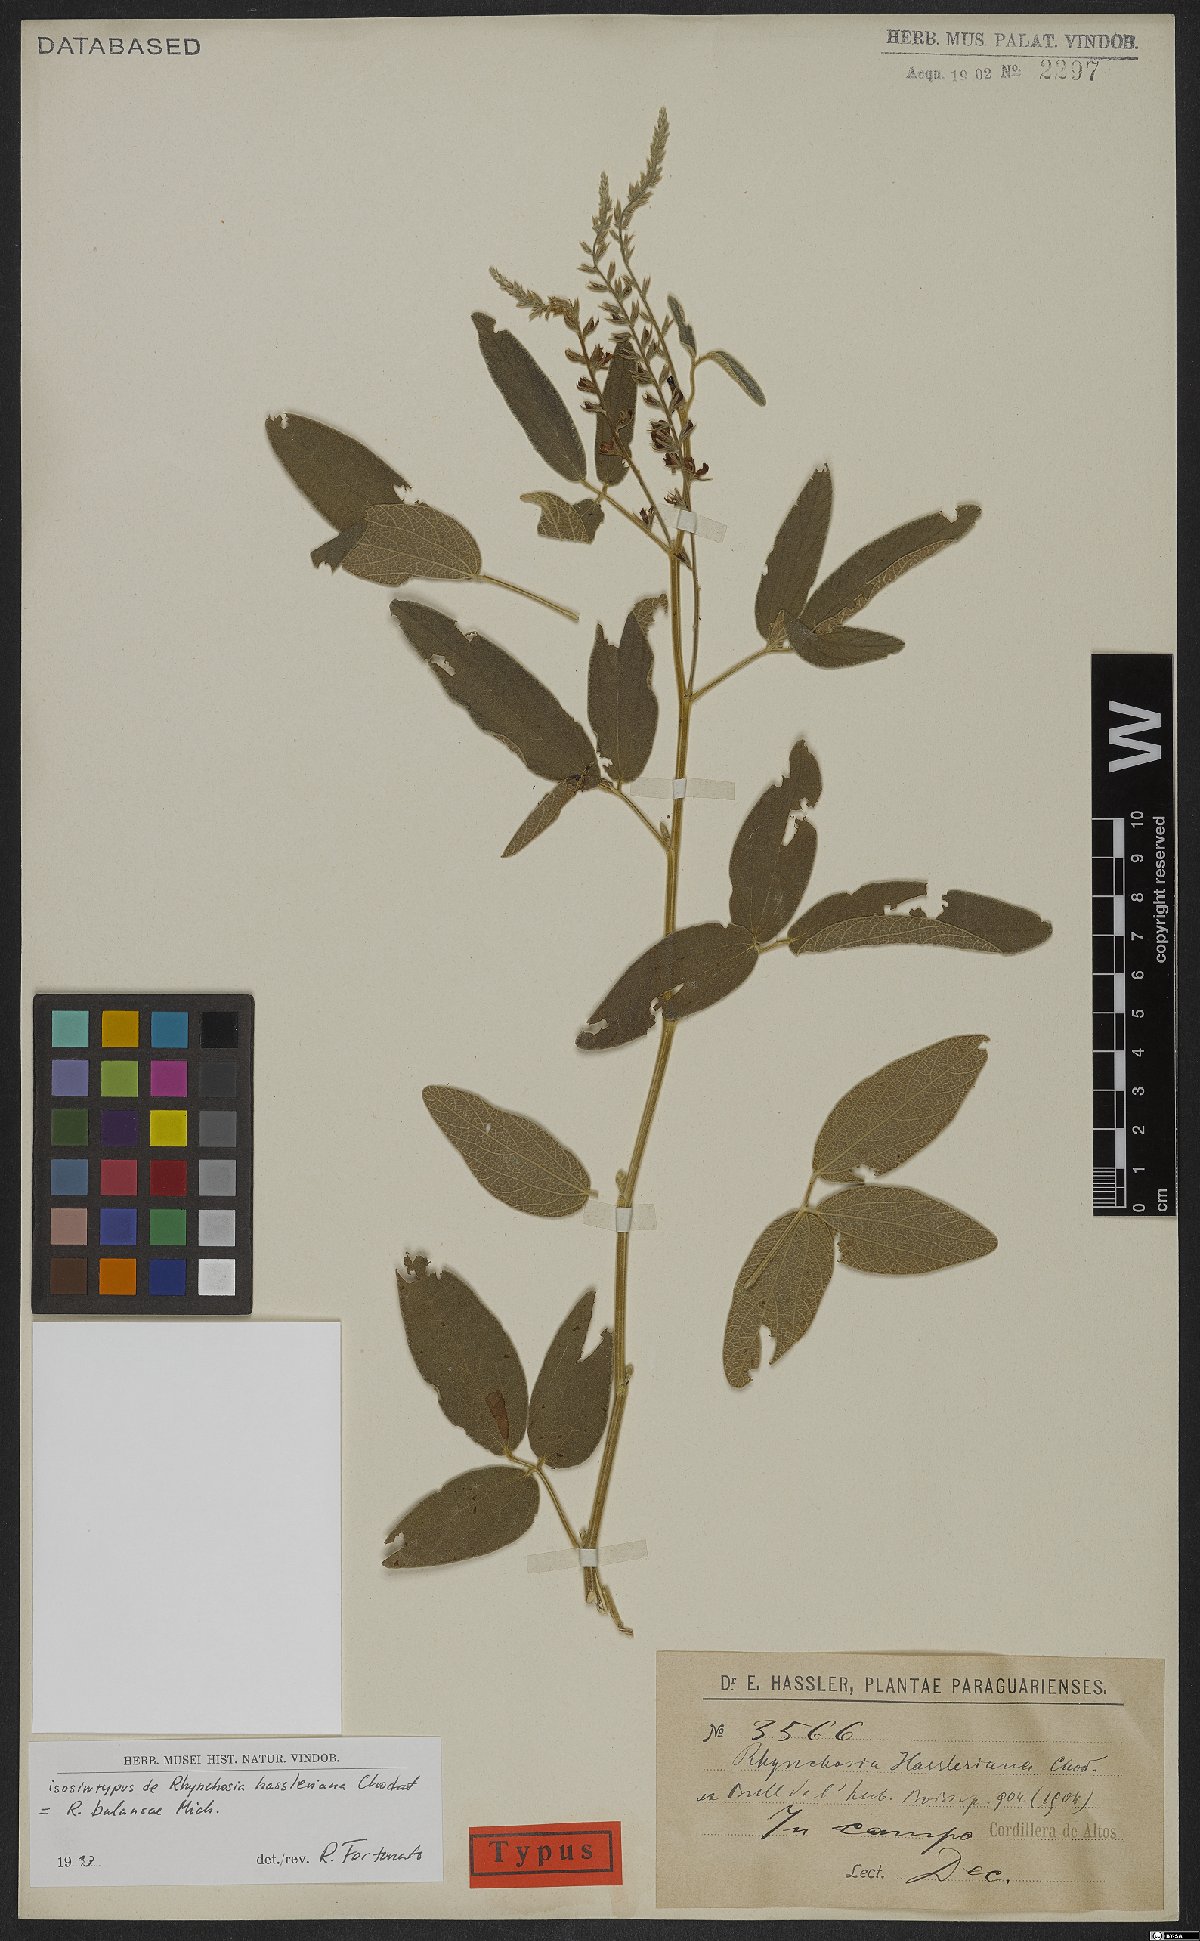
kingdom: Plantae
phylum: Tracheophyta
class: Magnoliopsida
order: Fabales
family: Fabaceae
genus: Rhynchosia
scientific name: Rhynchosia balansae
